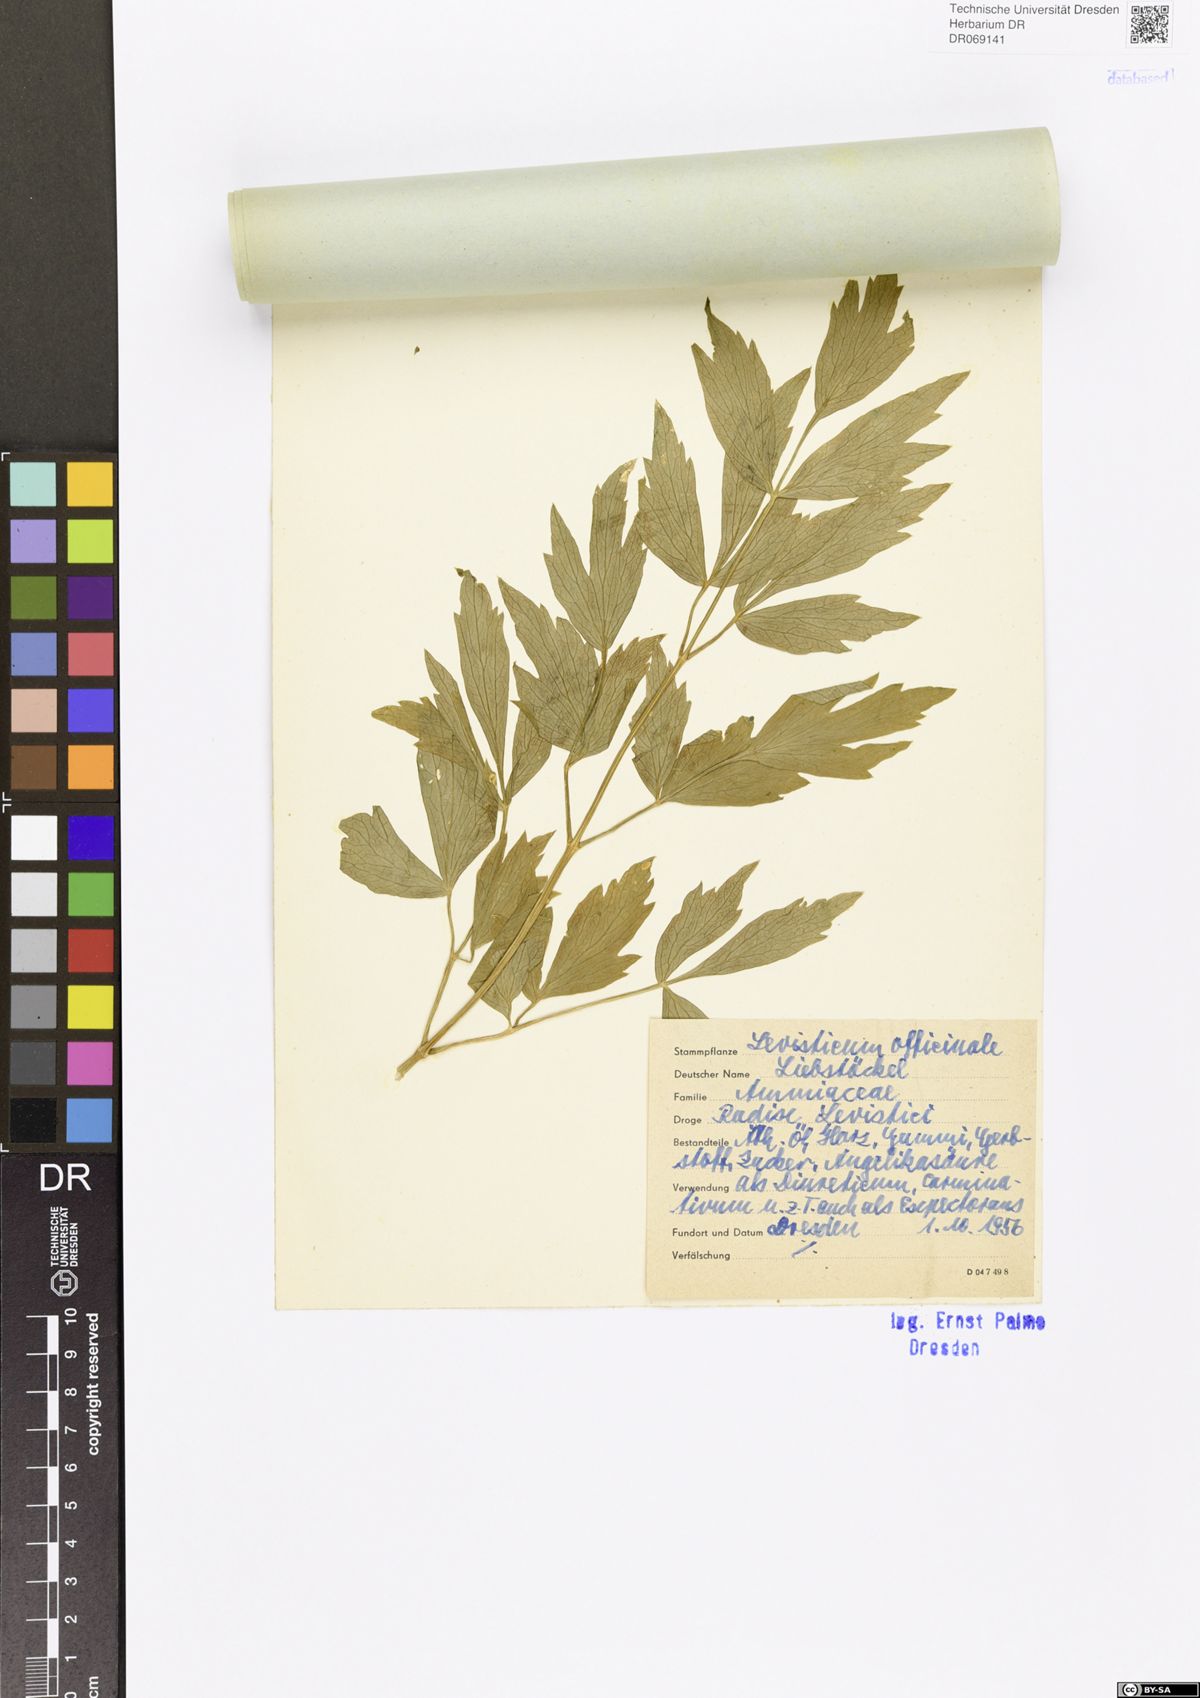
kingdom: Plantae
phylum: Tracheophyta
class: Magnoliopsida
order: Apiales
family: Apiaceae
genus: Levisticum
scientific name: Levisticum officinale
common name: Lovage
